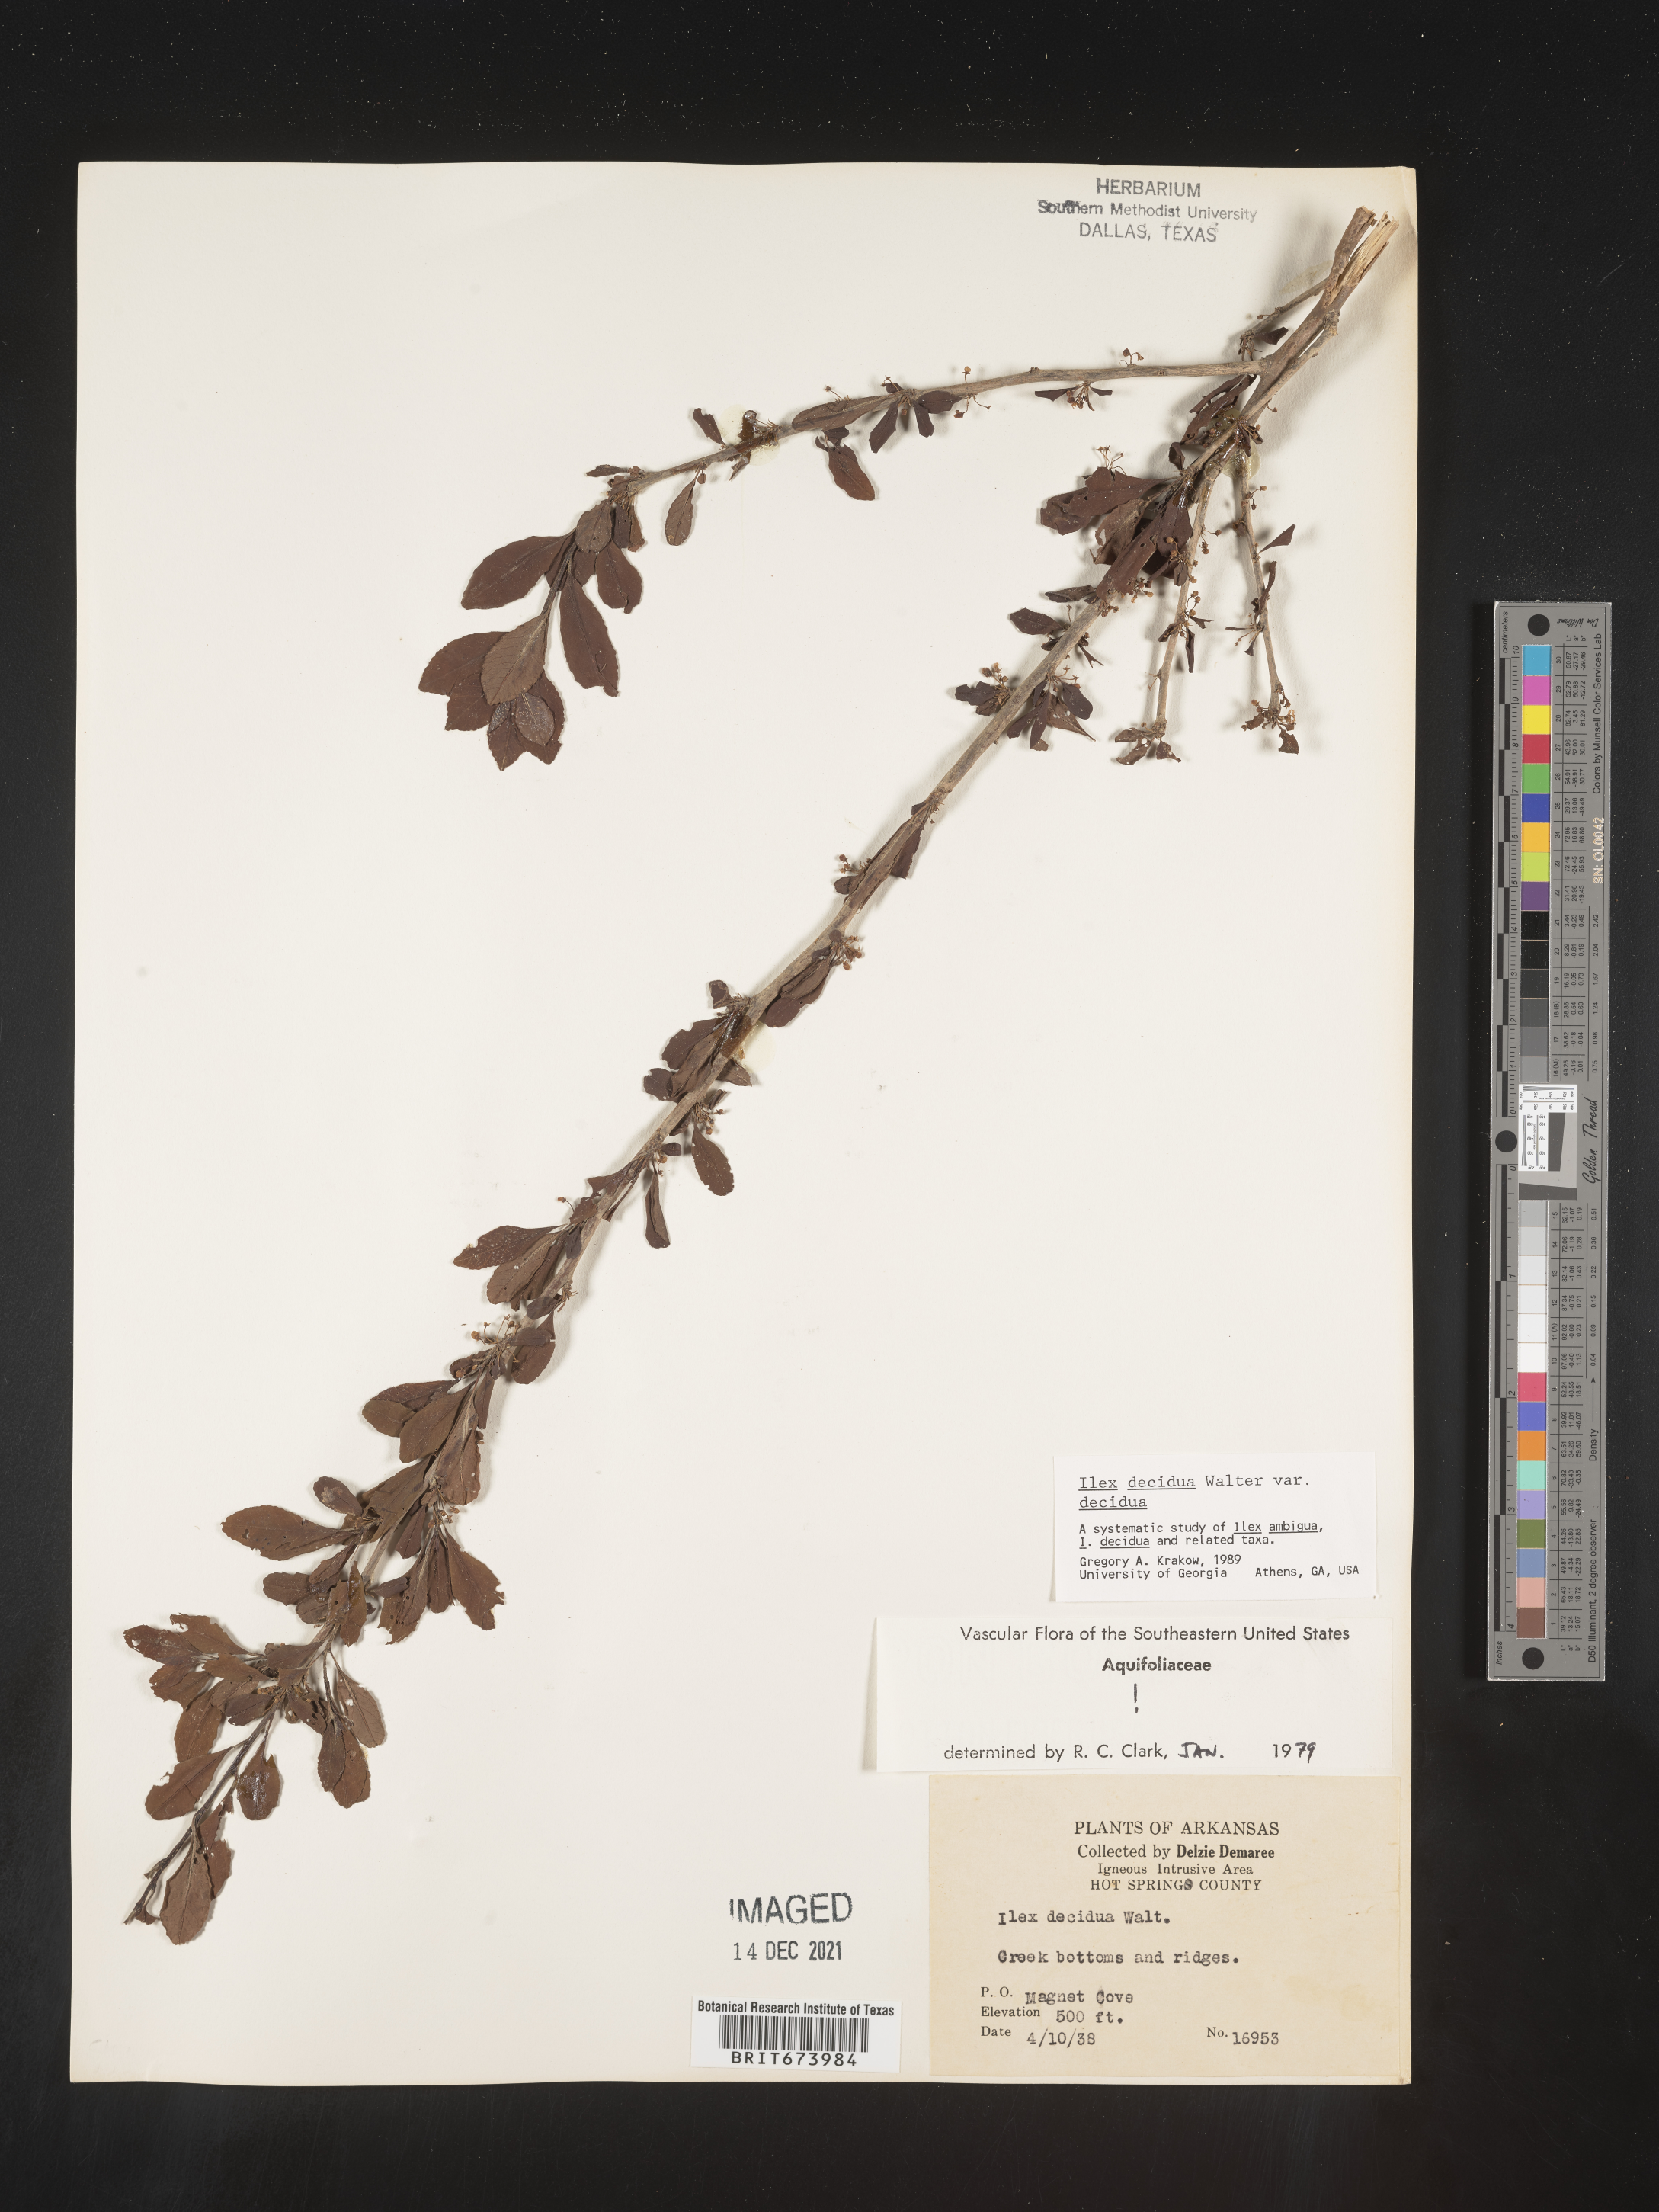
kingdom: Plantae
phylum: Tracheophyta
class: Magnoliopsida
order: Aquifoliales
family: Aquifoliaceae
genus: Ilex
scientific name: Ilex decidua
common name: Possum-haw
